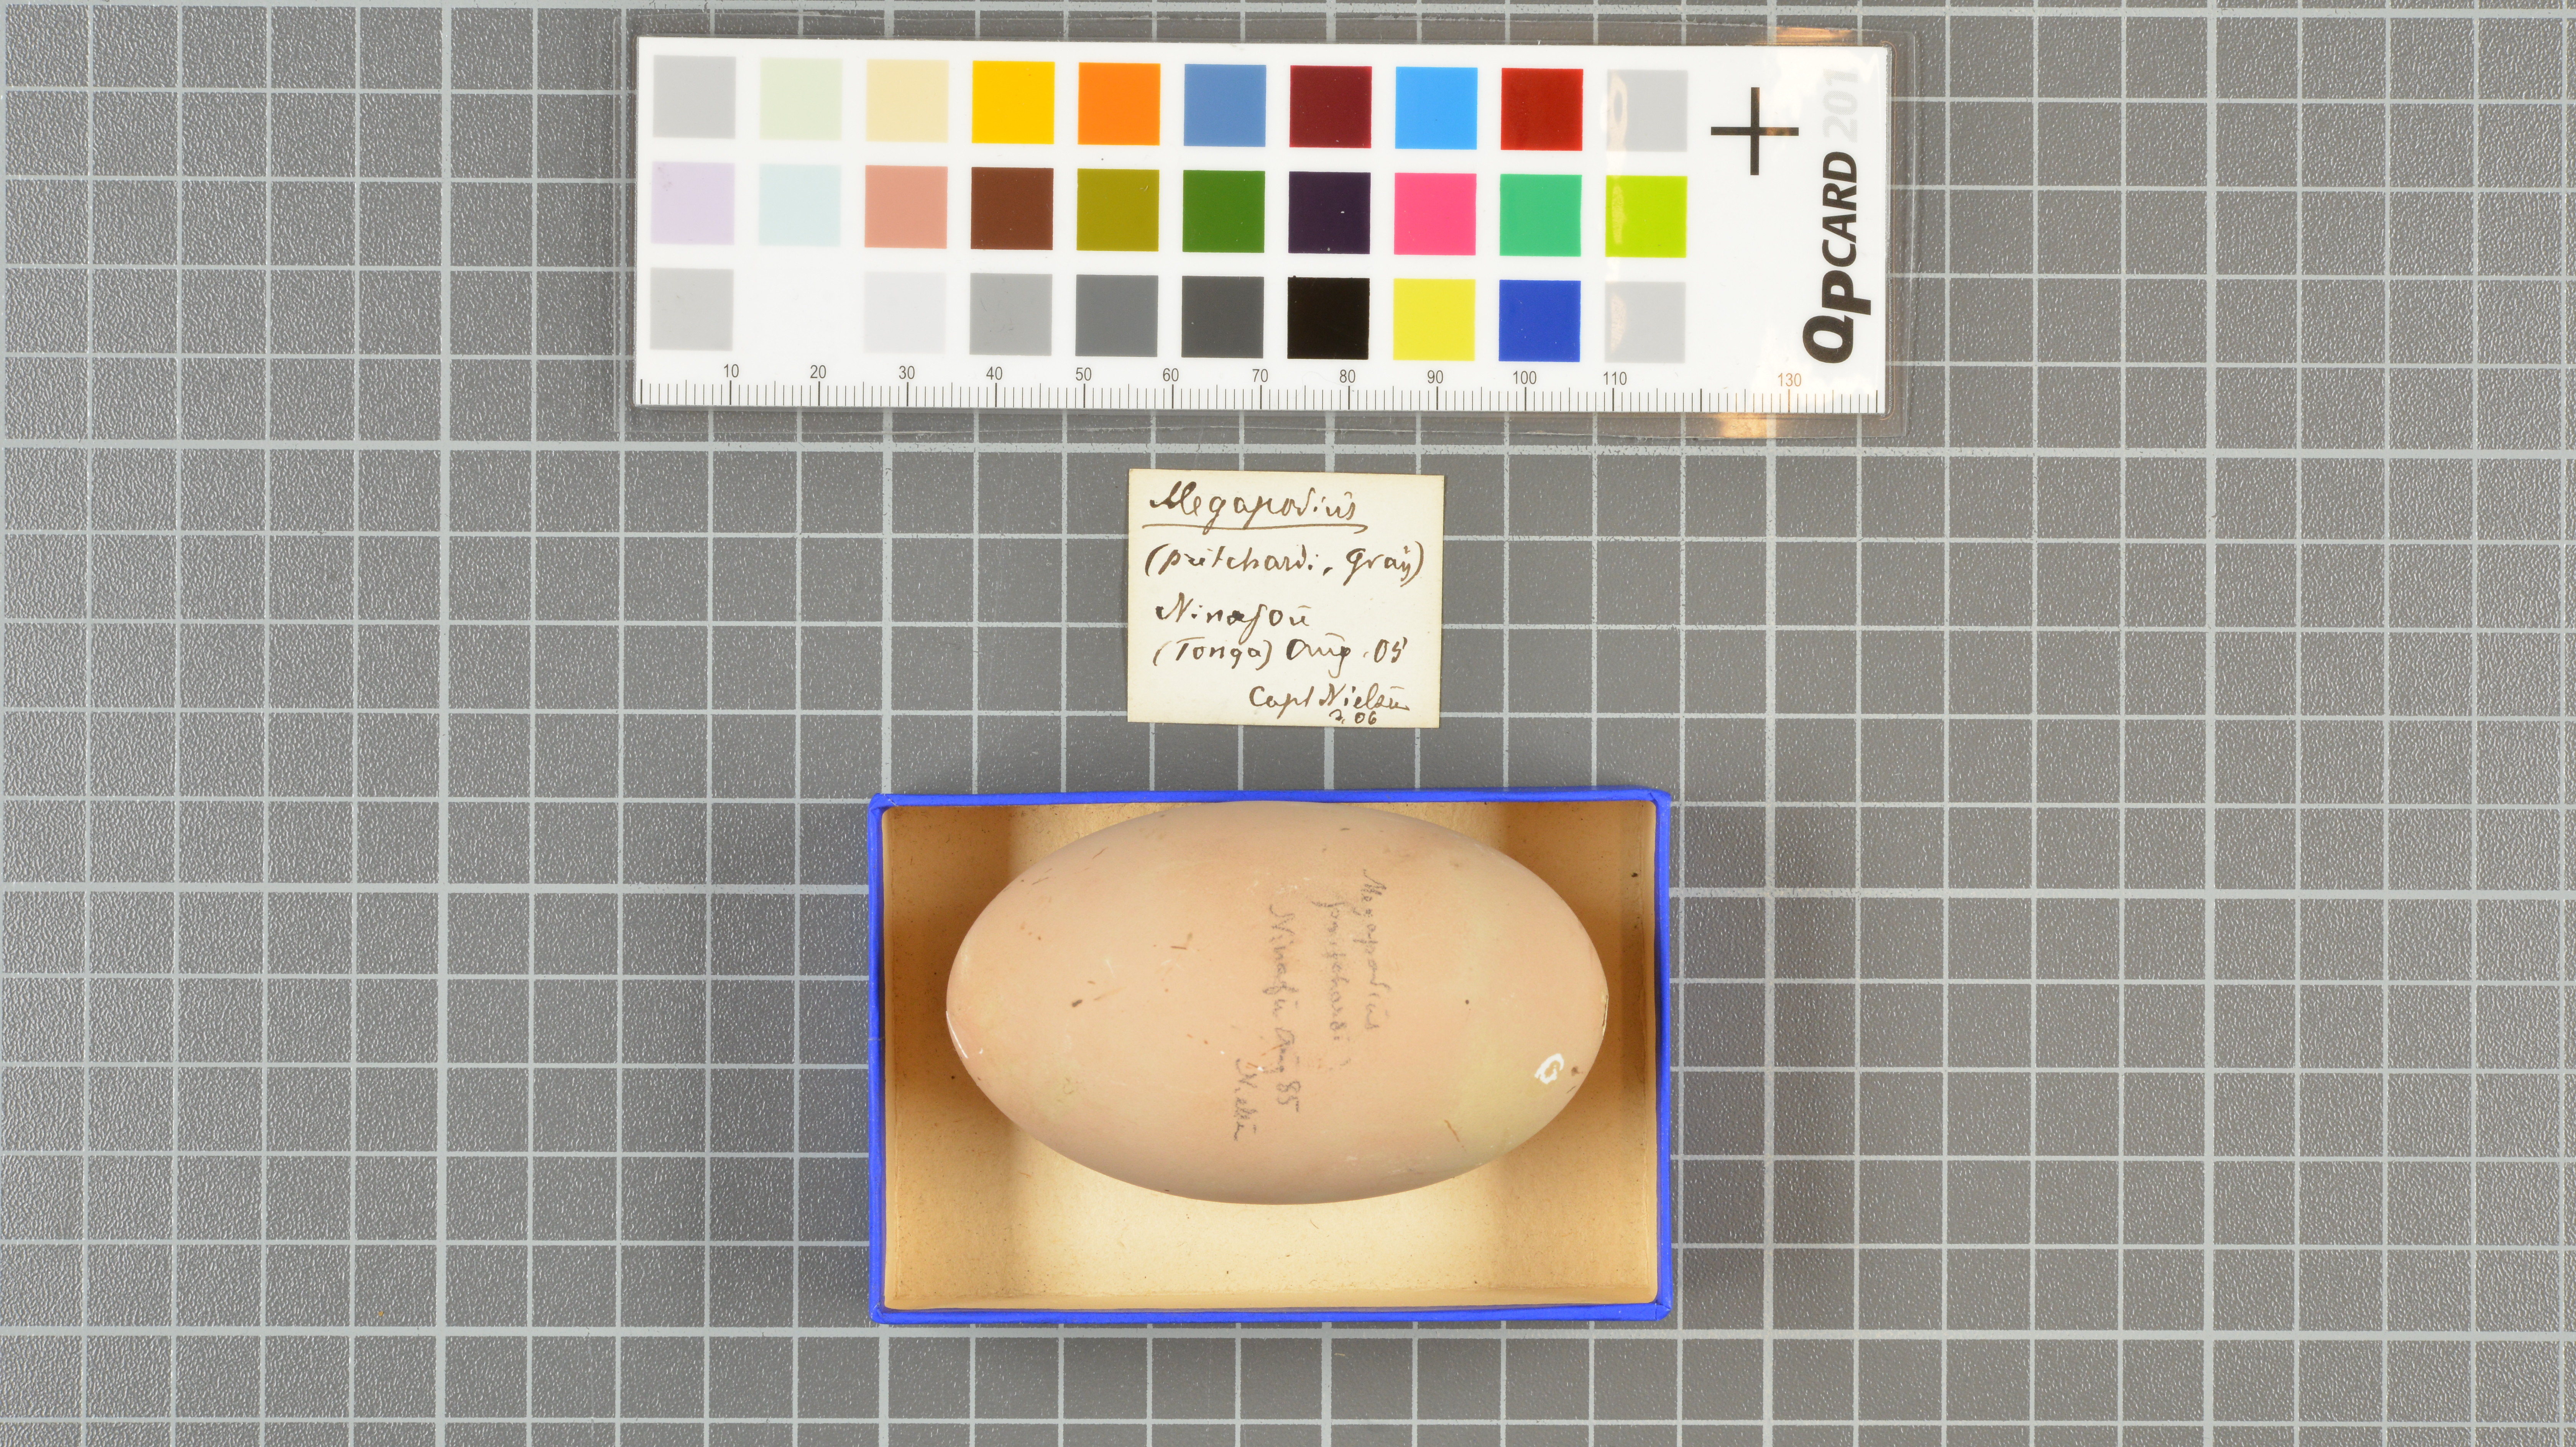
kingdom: Animalia
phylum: Chordata
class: Aves
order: Galliformes
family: Megapodiidae
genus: Megapodius
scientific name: Megapodius pritchardii
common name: Tongan megapode
